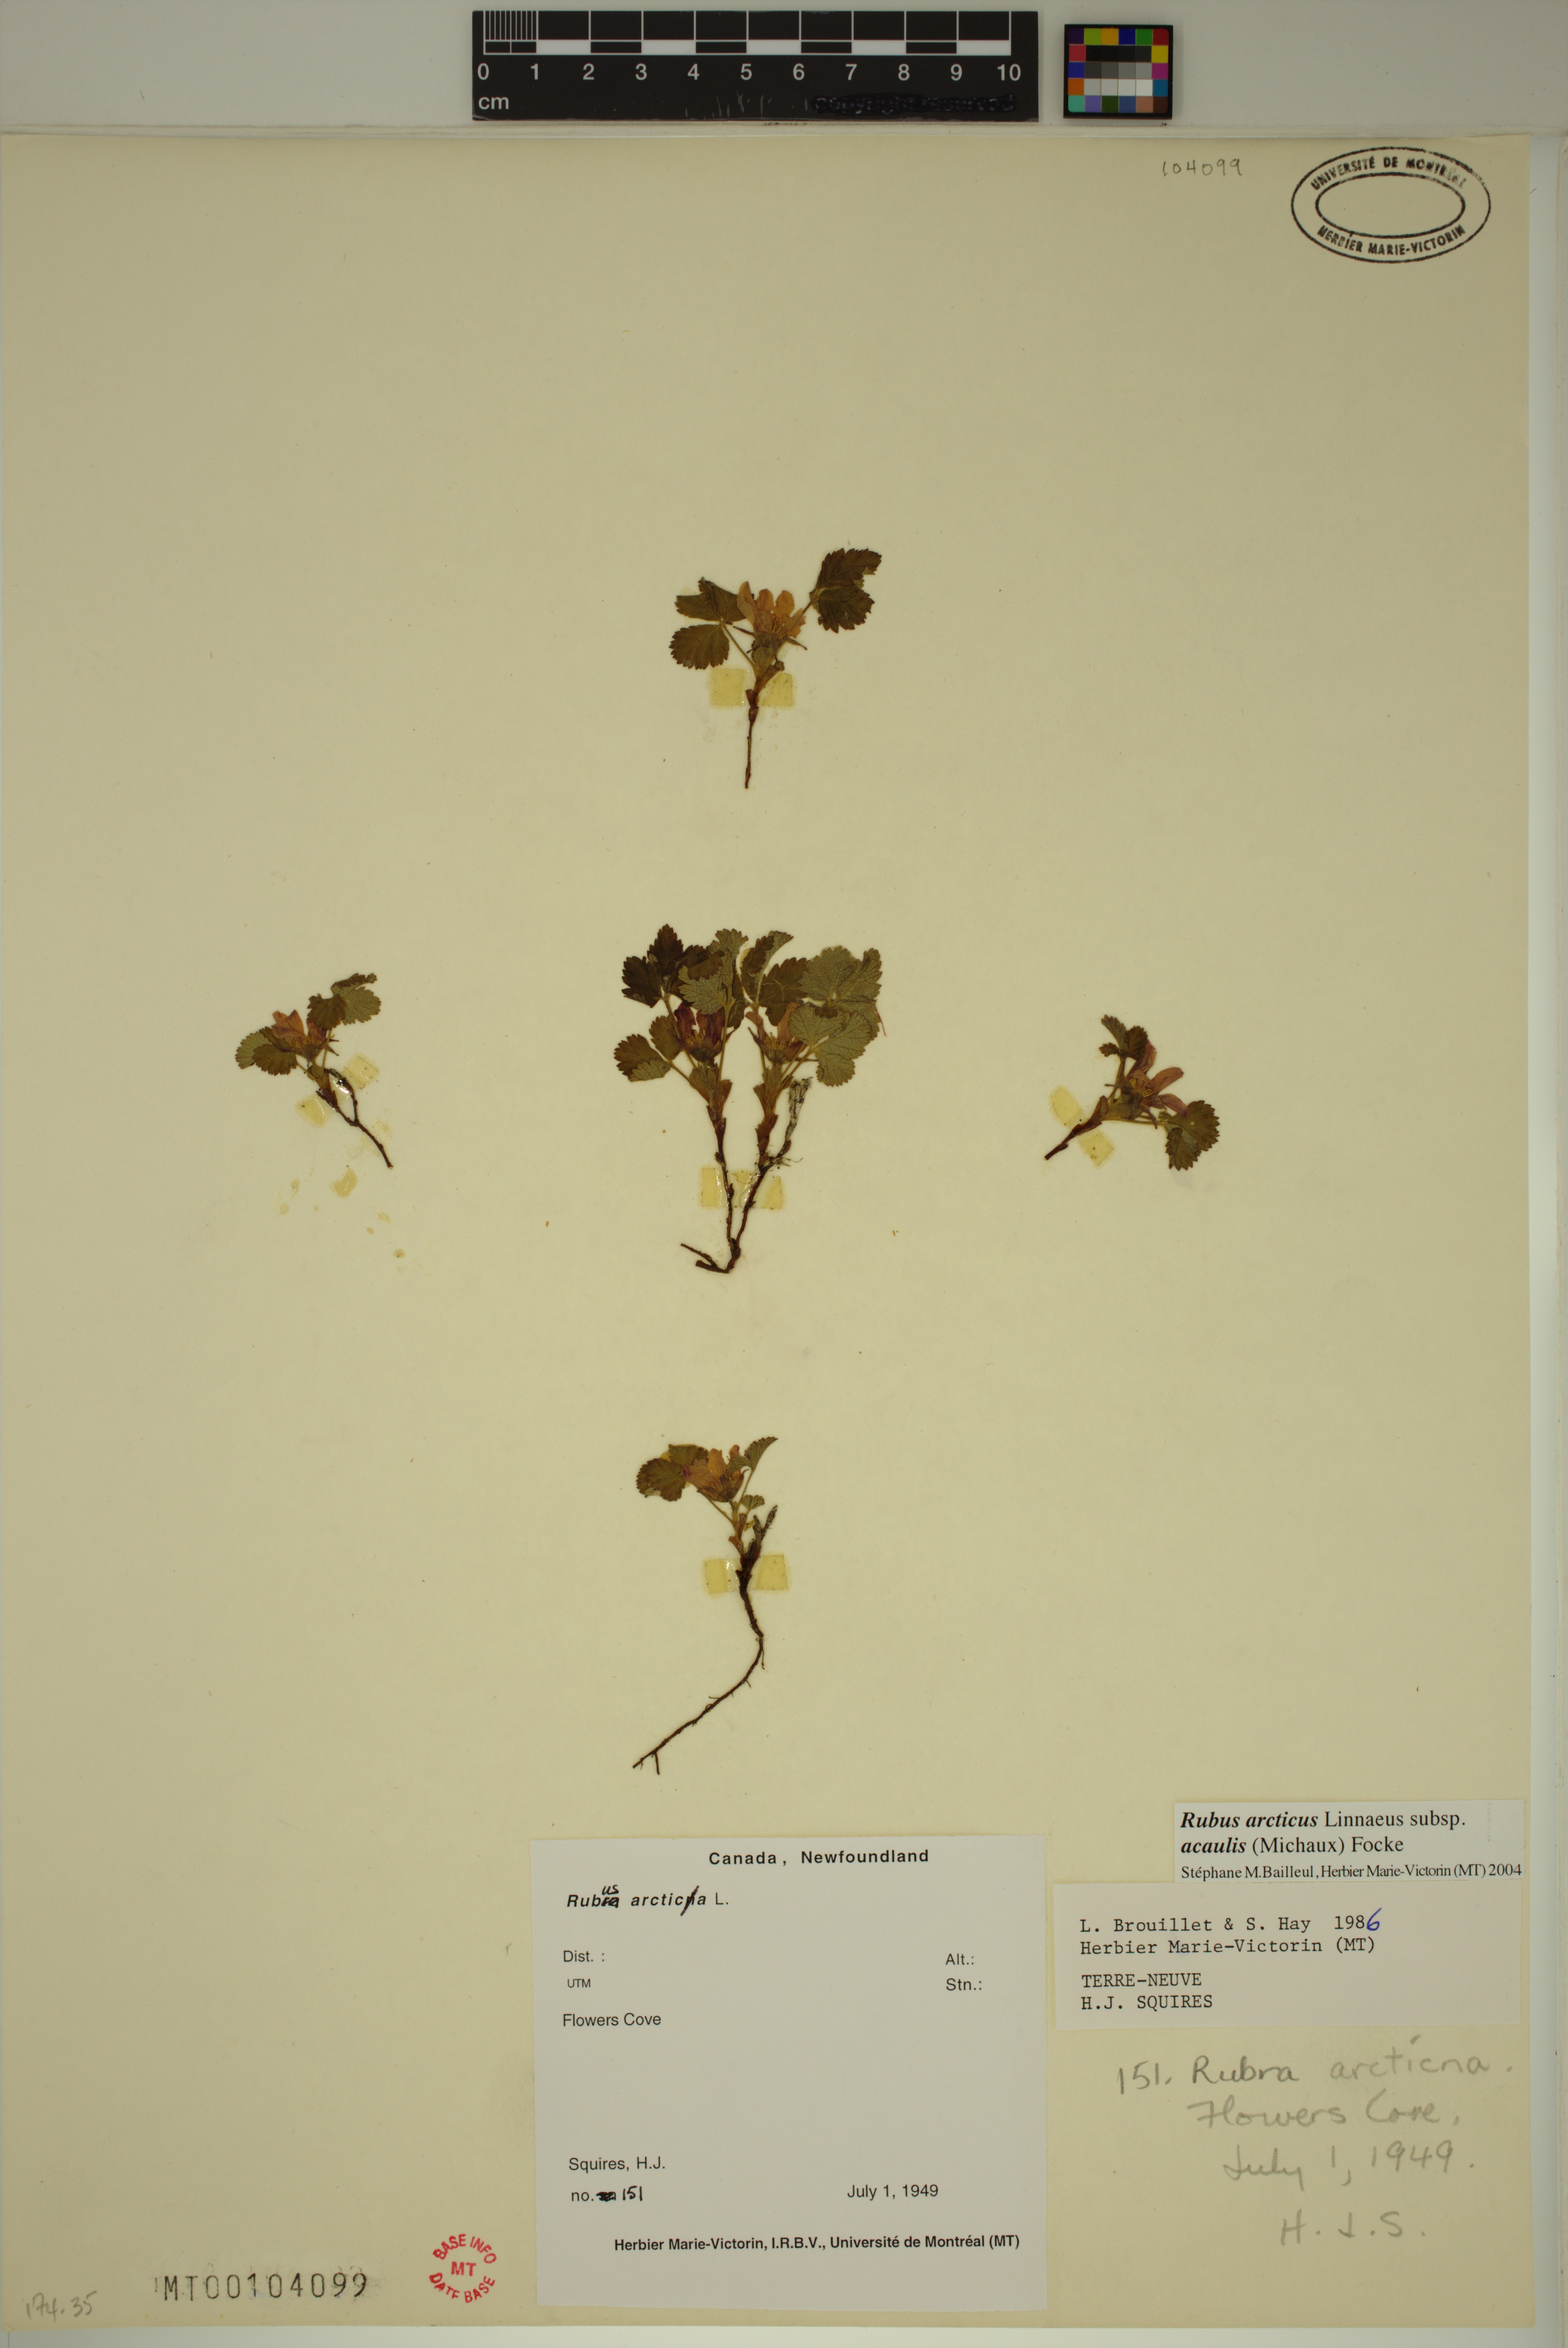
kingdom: Plantae
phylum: Tracheophyta
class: Magnoliopsida
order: Rosales
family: Rosaceae
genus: Rubus
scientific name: Rubus arcticus
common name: Arctic bramble
